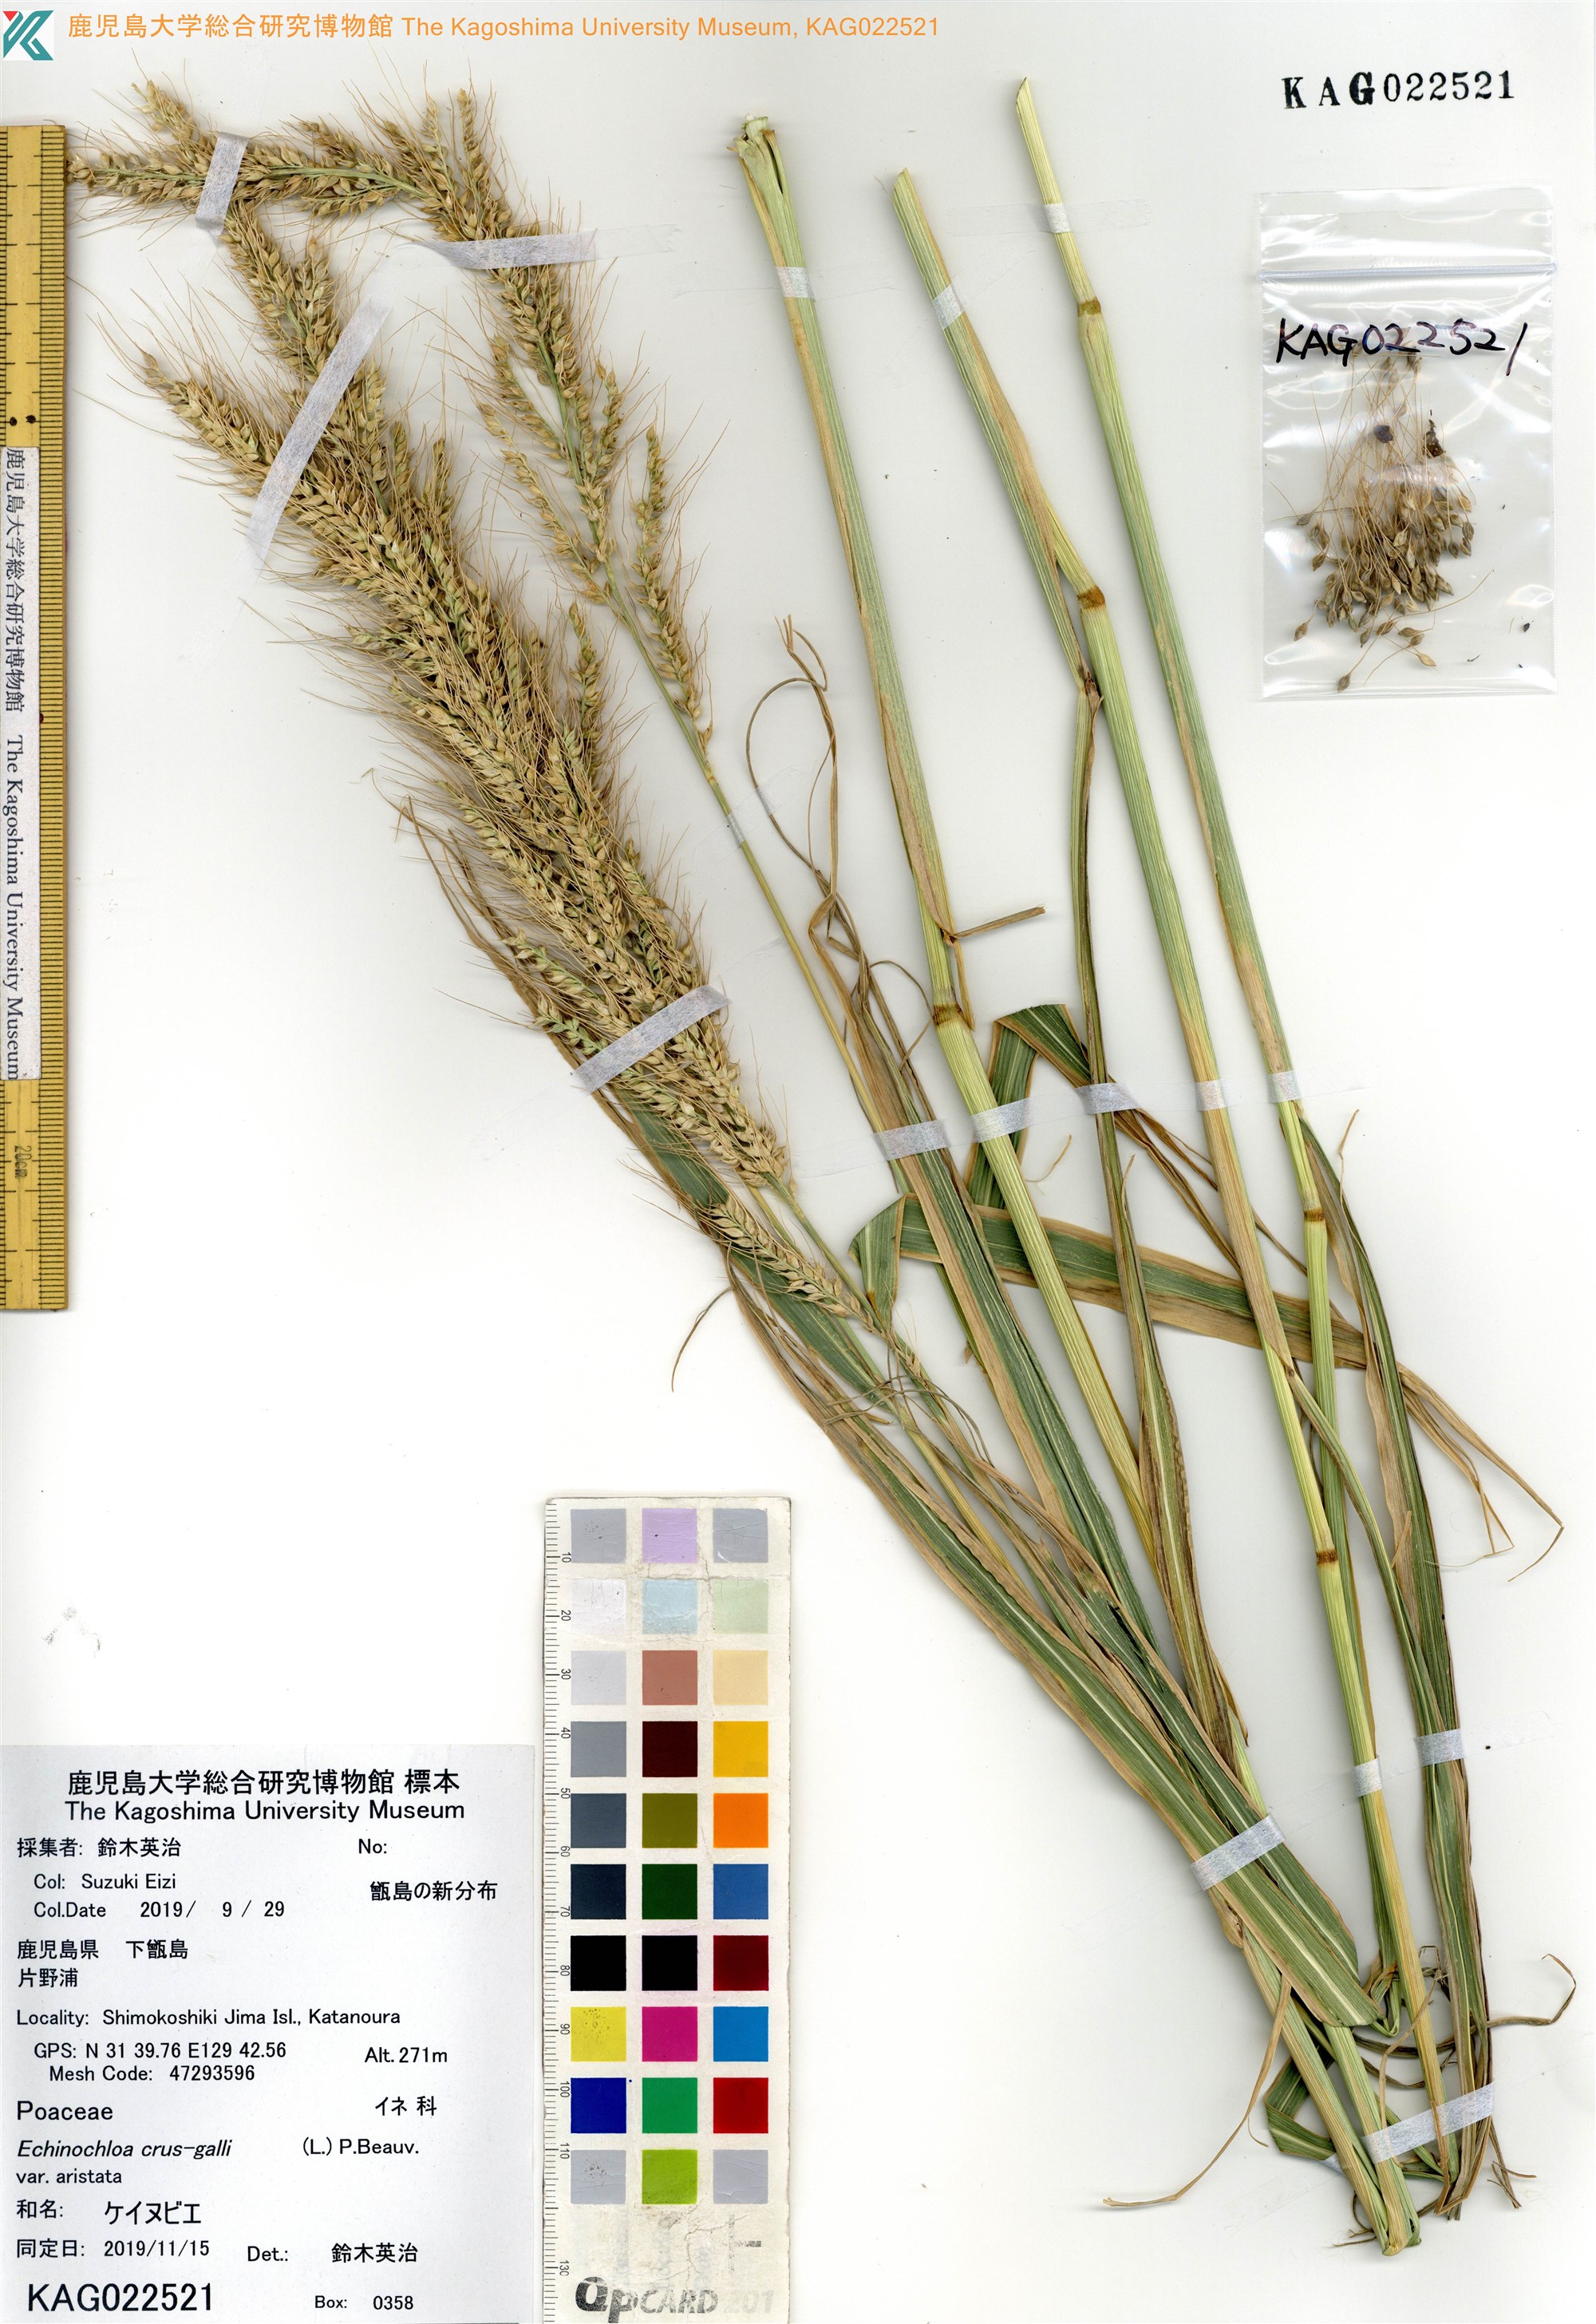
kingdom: Plantae
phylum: Tracheophyta
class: Liliopsida
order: Poales
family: Poaceae
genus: Echinochloa
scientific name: Echinochloa crus-galli
